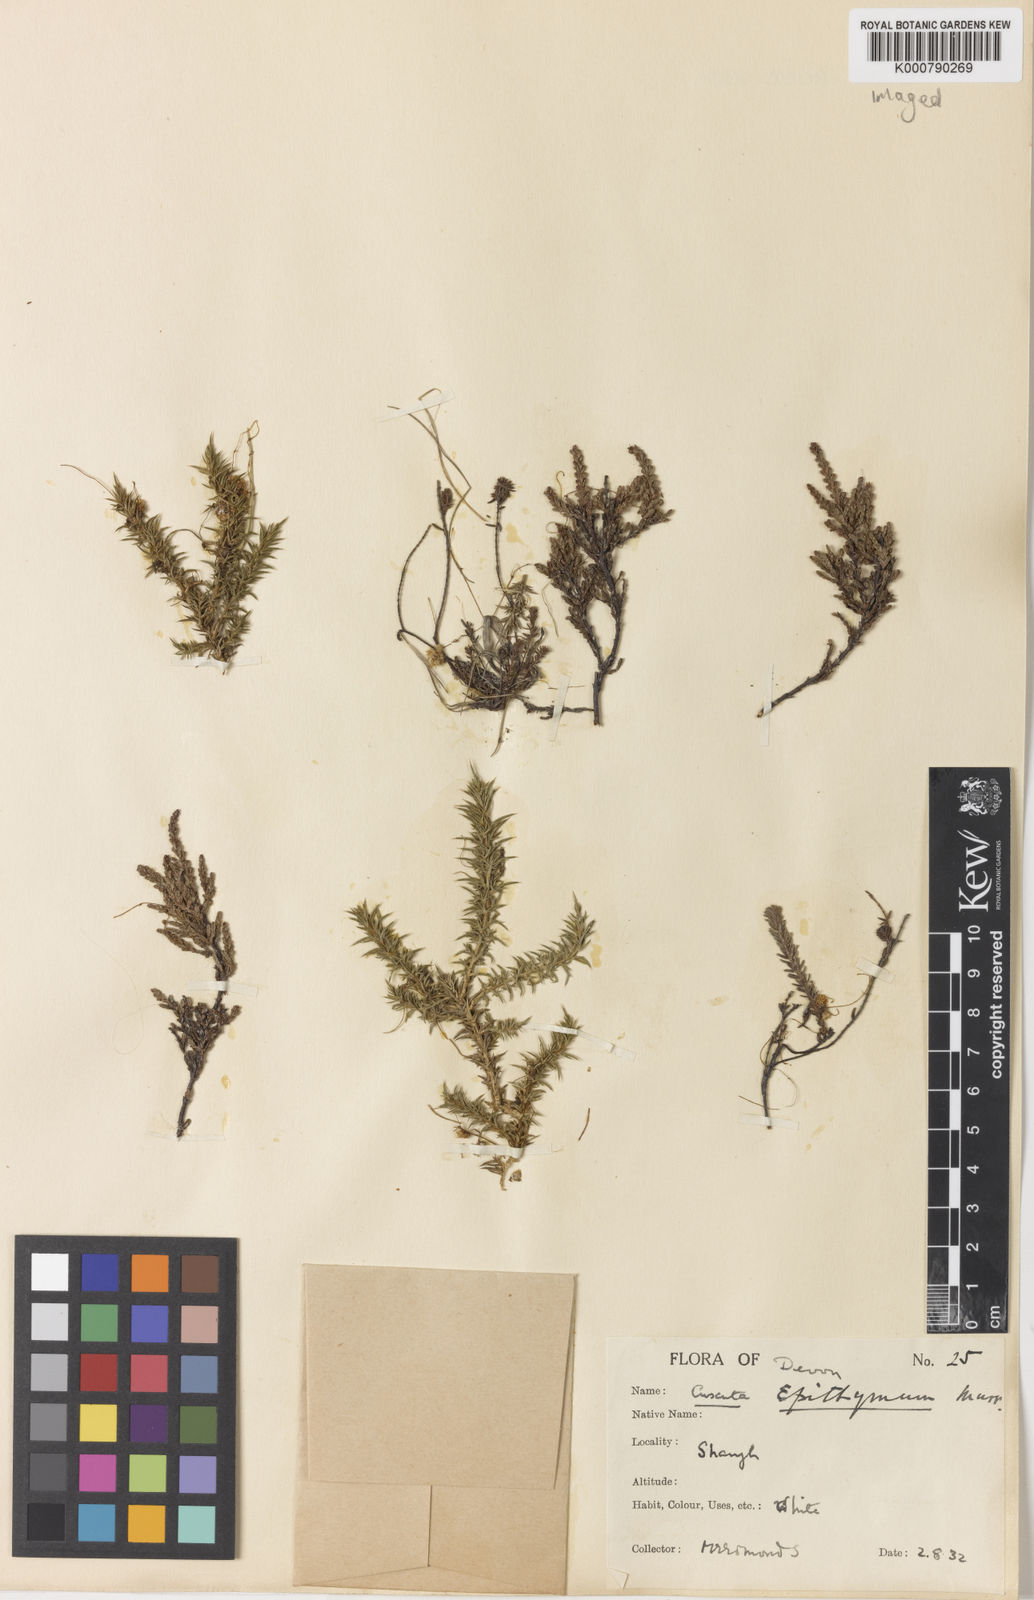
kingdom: Plantae
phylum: Tracheophyta
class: Magnoliopsida
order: Solanales
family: Convolvulaceae
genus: Cuscuta
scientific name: Cuscuta epithymum
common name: Clover dodder
